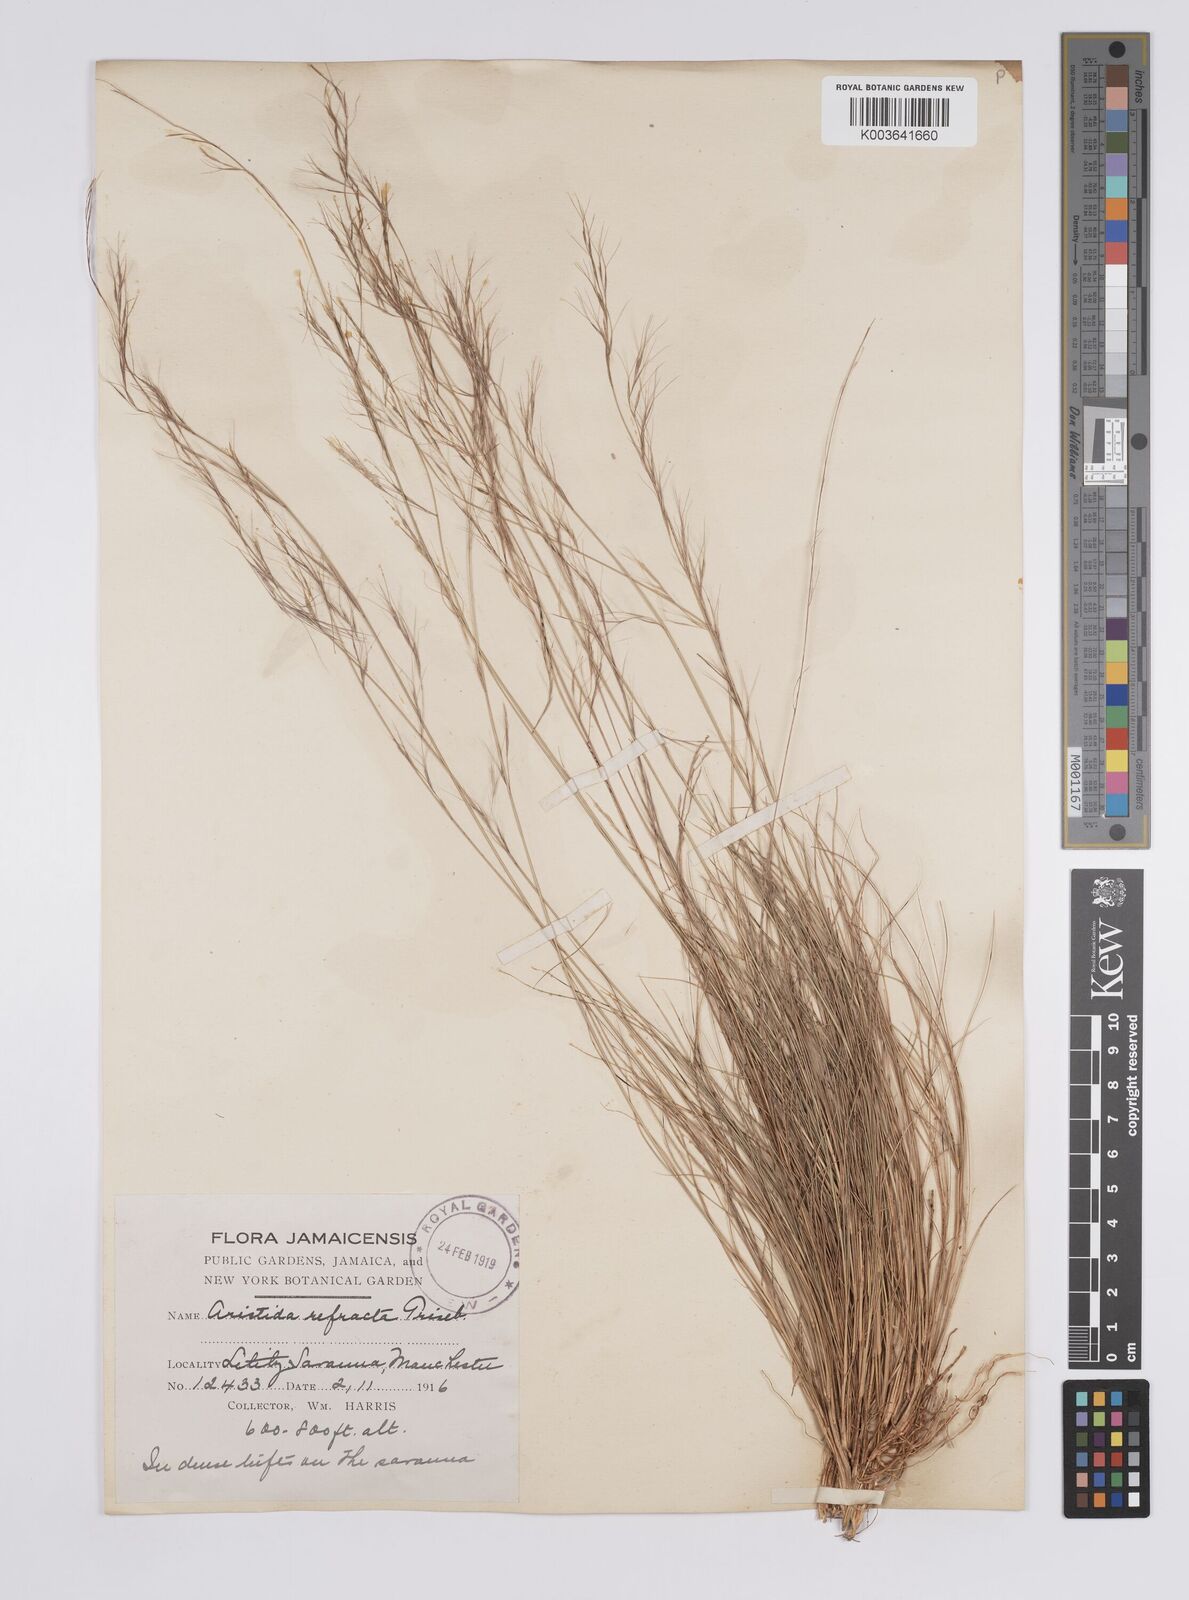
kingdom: Plantae
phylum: Tracheophyta
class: Liliopsida
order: Poales
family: Poaceae
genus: Aristida
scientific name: Aristida refracta
